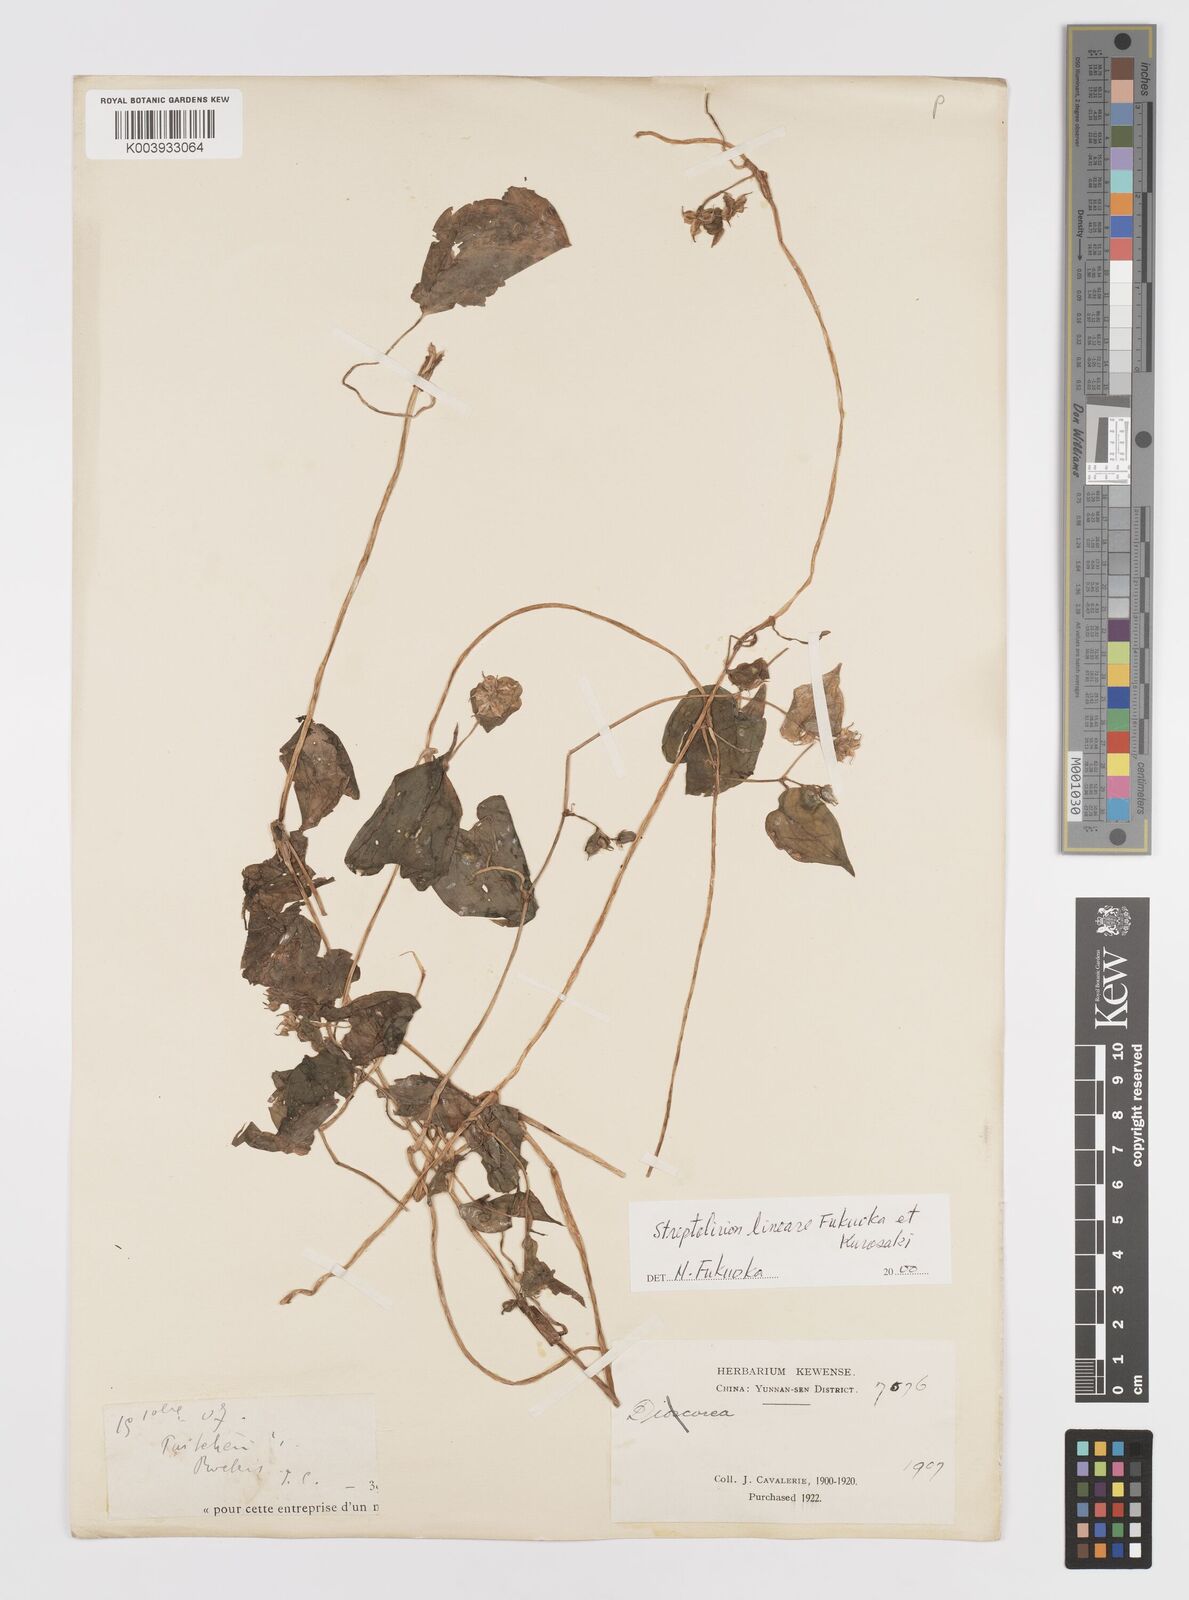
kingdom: Plantae
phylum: Tracheophyta
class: Liliopsida
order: Commelinales
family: Commelinaceae
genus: Streptolirion
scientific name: Streptolirion lineare
